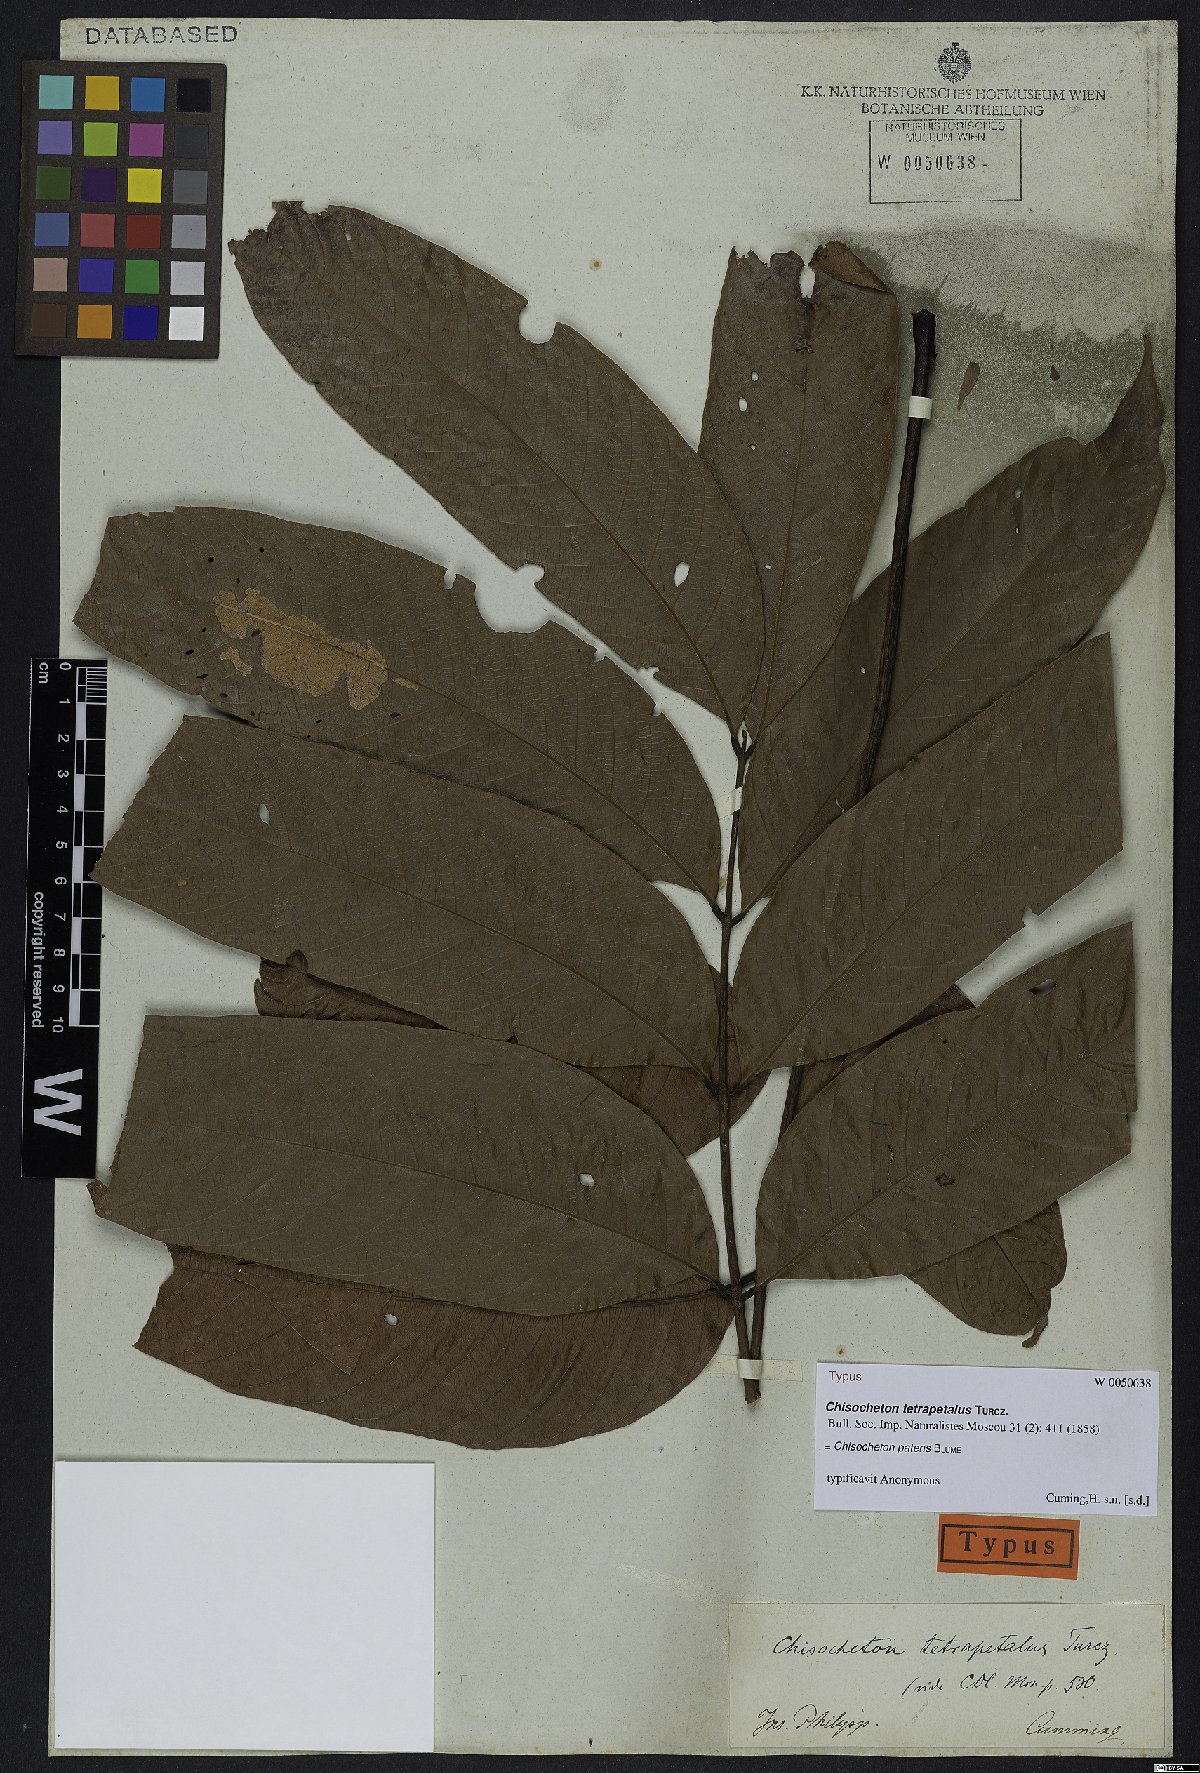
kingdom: Plantae
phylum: Tracheophyta
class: Magnoliopsida
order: Sapindales
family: Meliaceae
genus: Chisocheton
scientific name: Chisocheton patens
